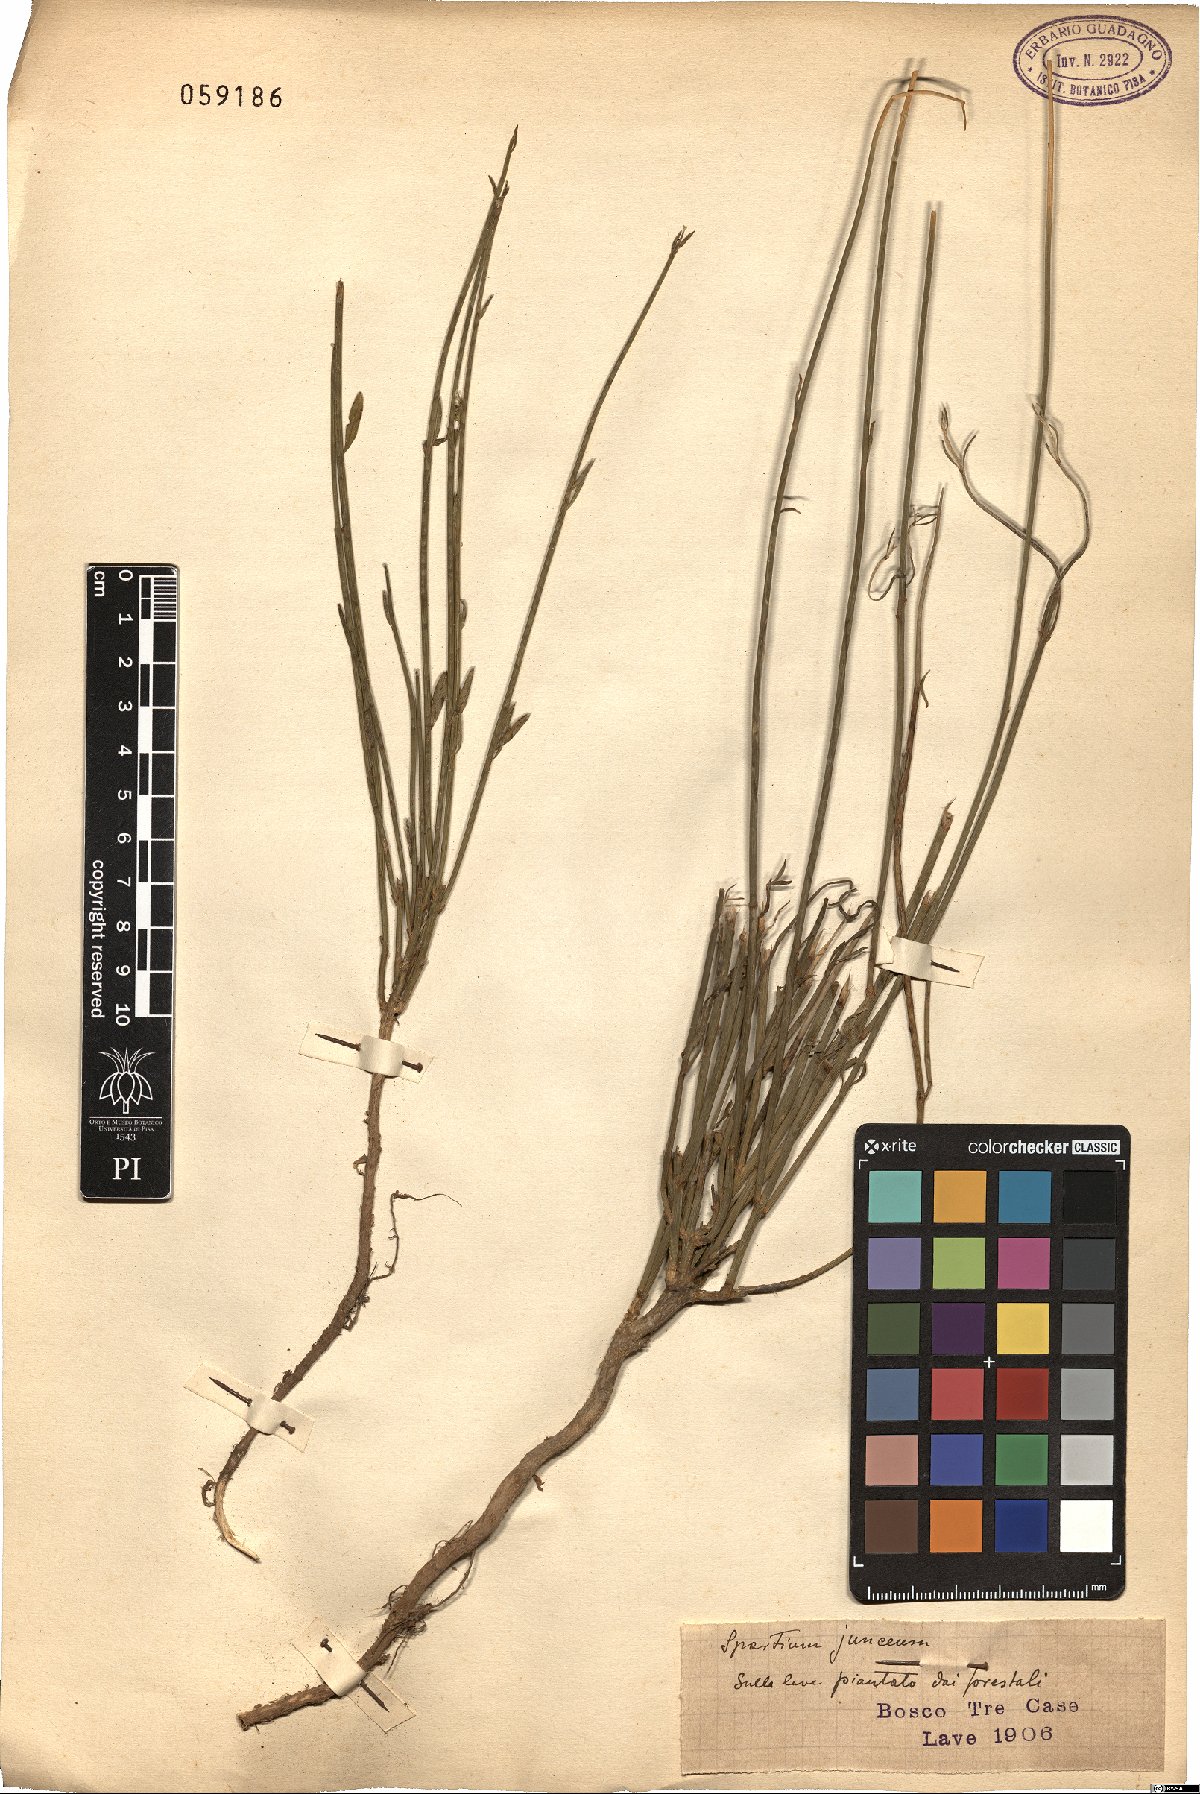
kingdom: Plantae
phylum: Tracheophyta
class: Magnoliopsida
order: Fabales
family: Fabaceae
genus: Spartium
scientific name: Spartium junceum
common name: Spanish broom
